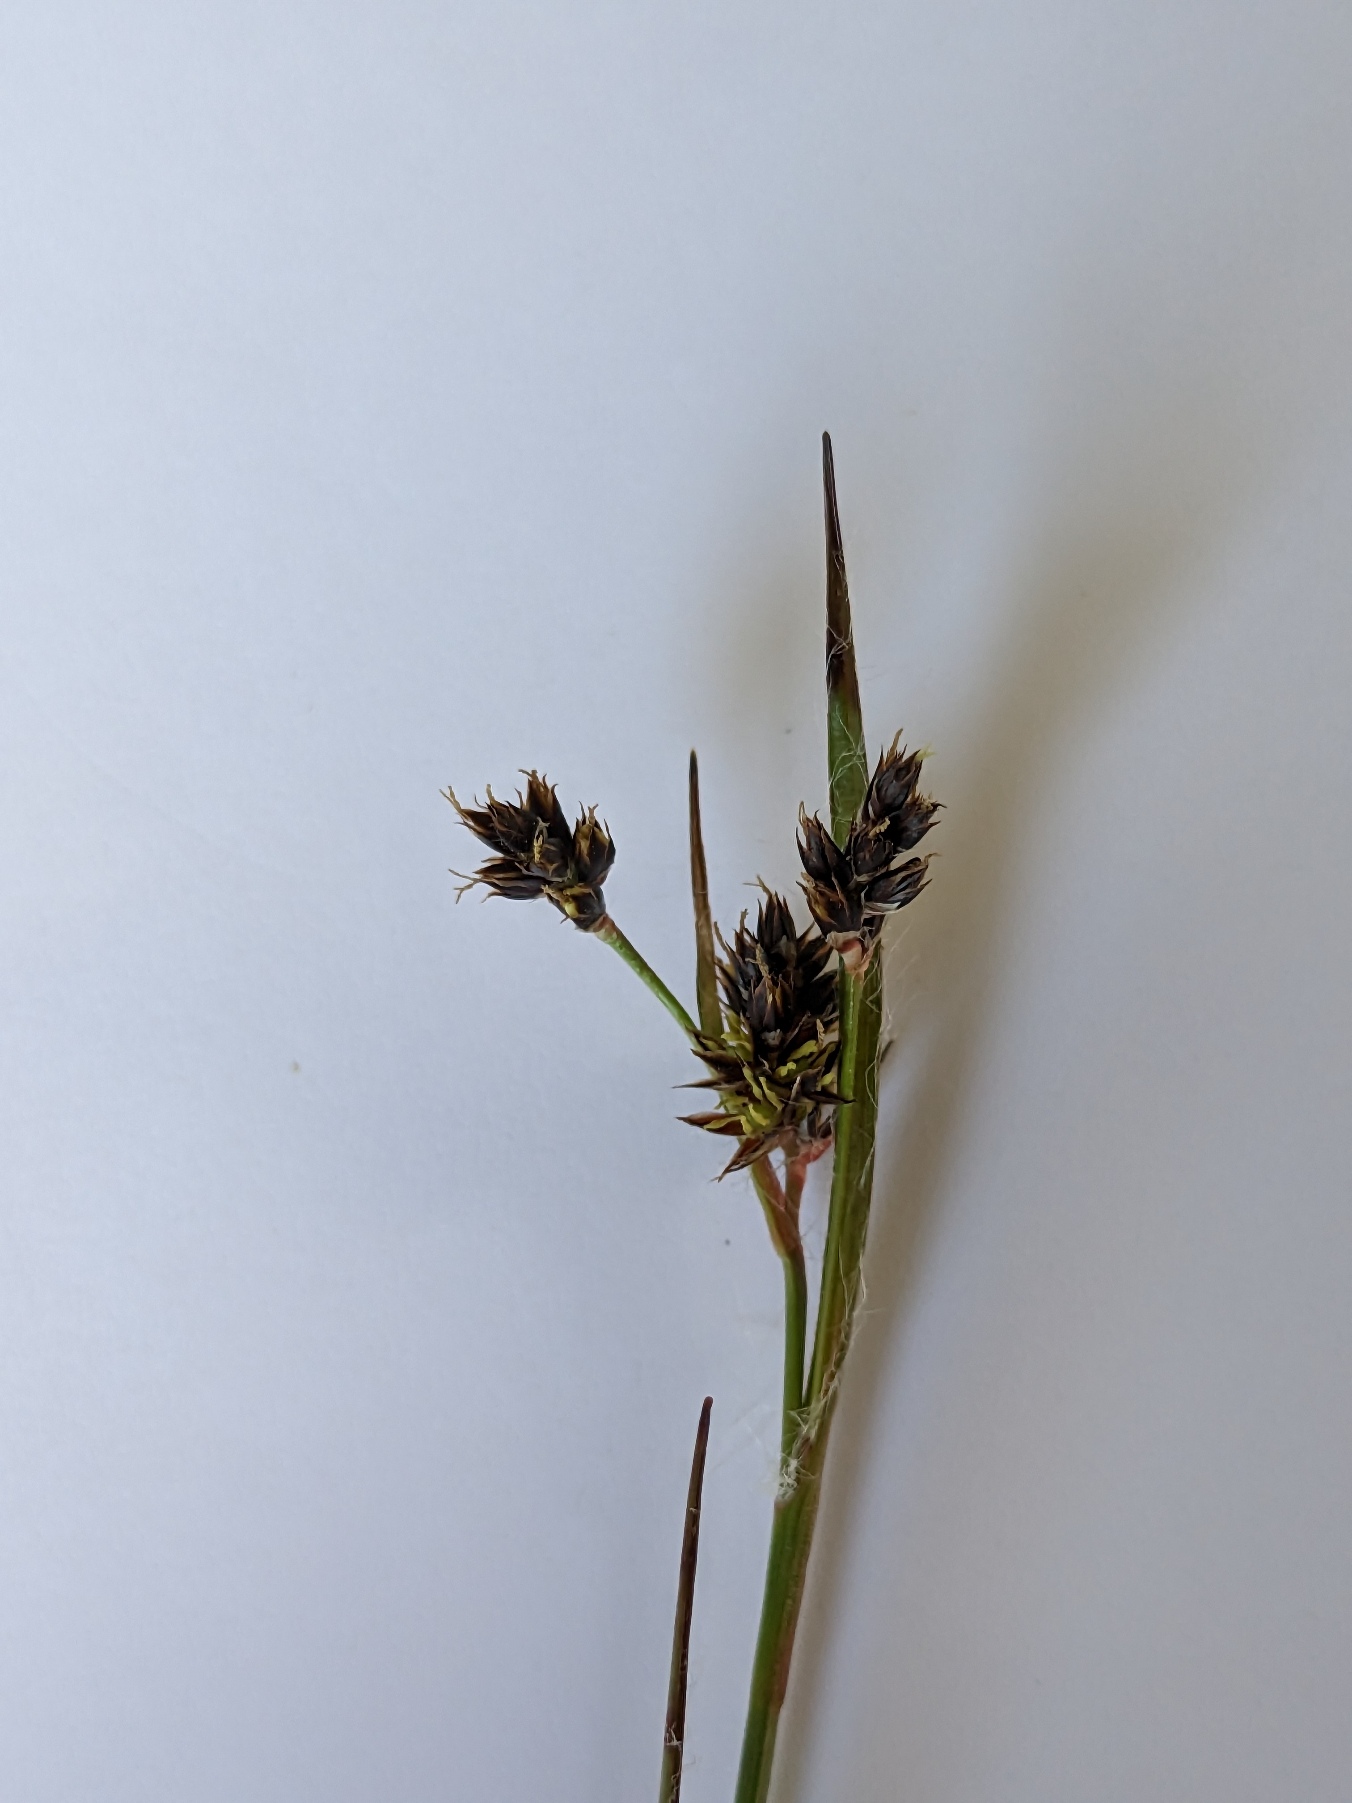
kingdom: Plantae
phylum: Tracheophyta
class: Liliopsida
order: Poales
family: Juncaceae
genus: Luzula
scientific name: Luzula campestris
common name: Mark-frytle
